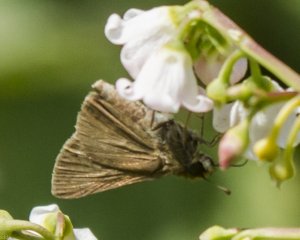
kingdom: Animalia
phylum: Arthropoda
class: Insecta
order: Lepidoptera
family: Hesperiidae
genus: Euphyes
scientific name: Euphyes vestris
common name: Dun Skipper
